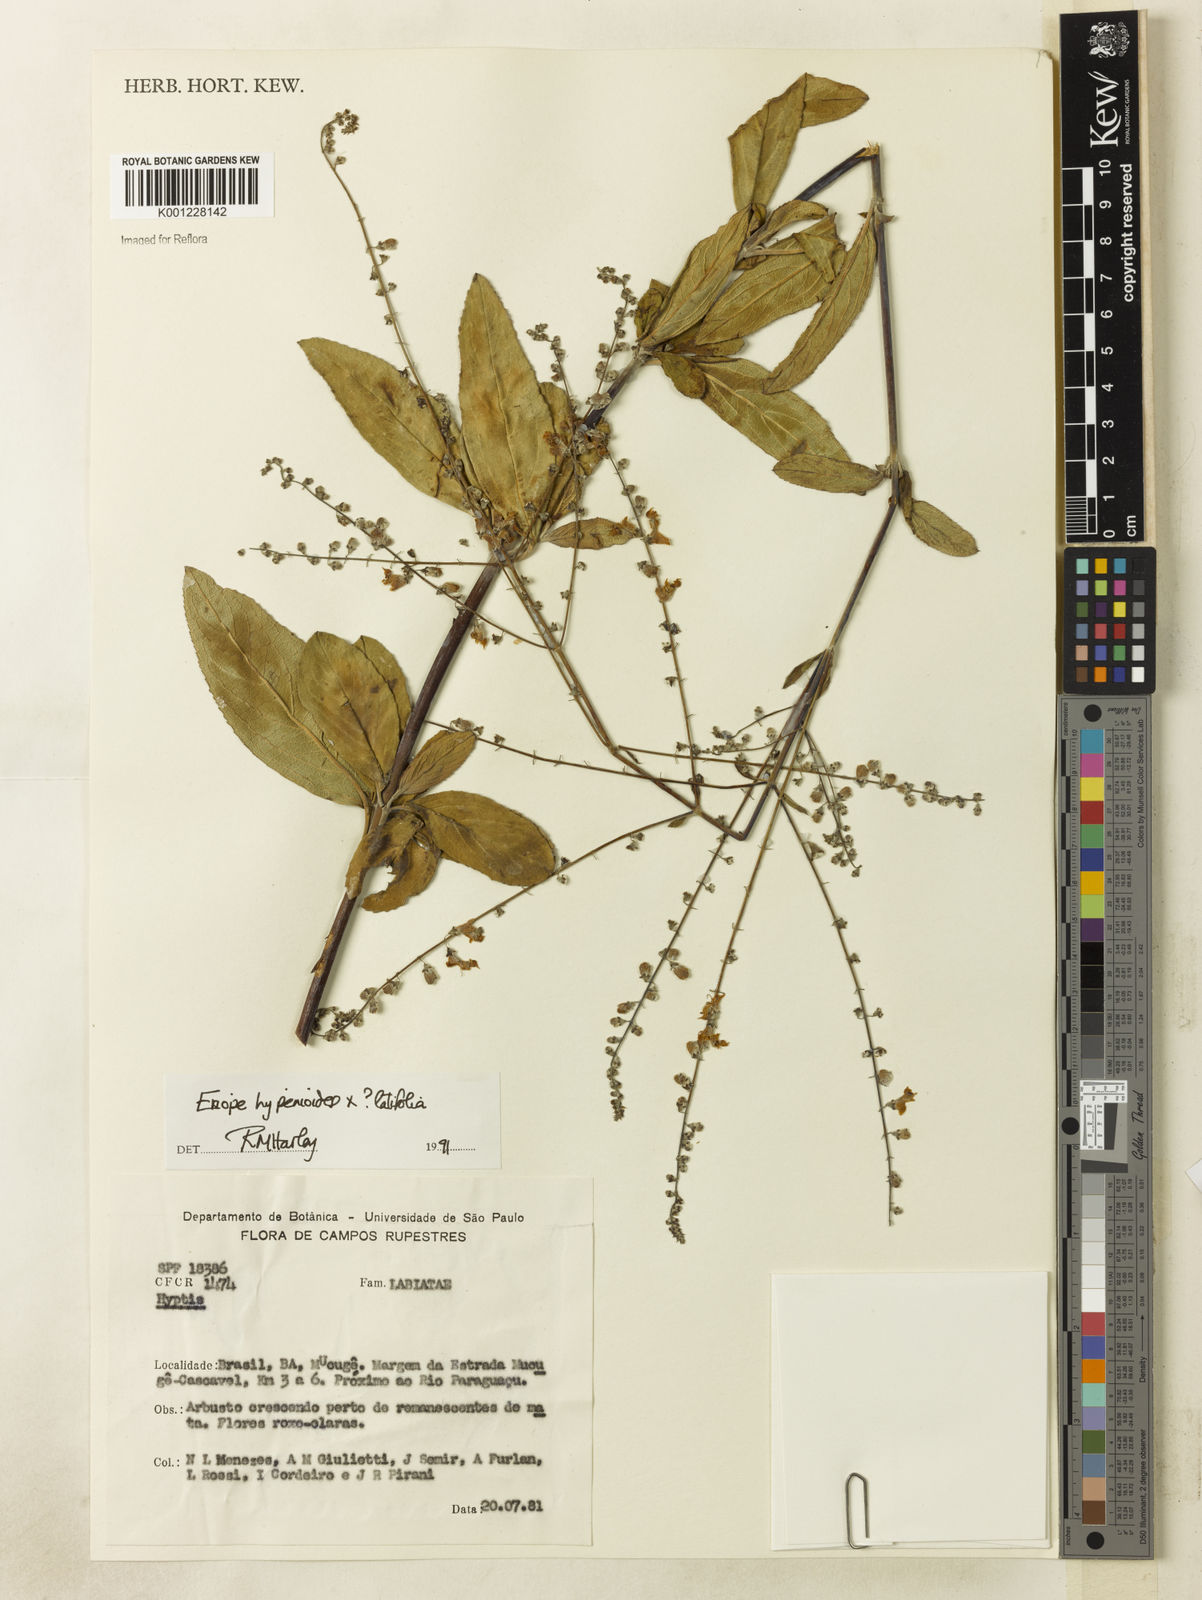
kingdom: Plantae
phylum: Tracheophyta
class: Magnoliopsida
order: Lamiales
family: Lamiaceae
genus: Eriope
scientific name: Eriope
